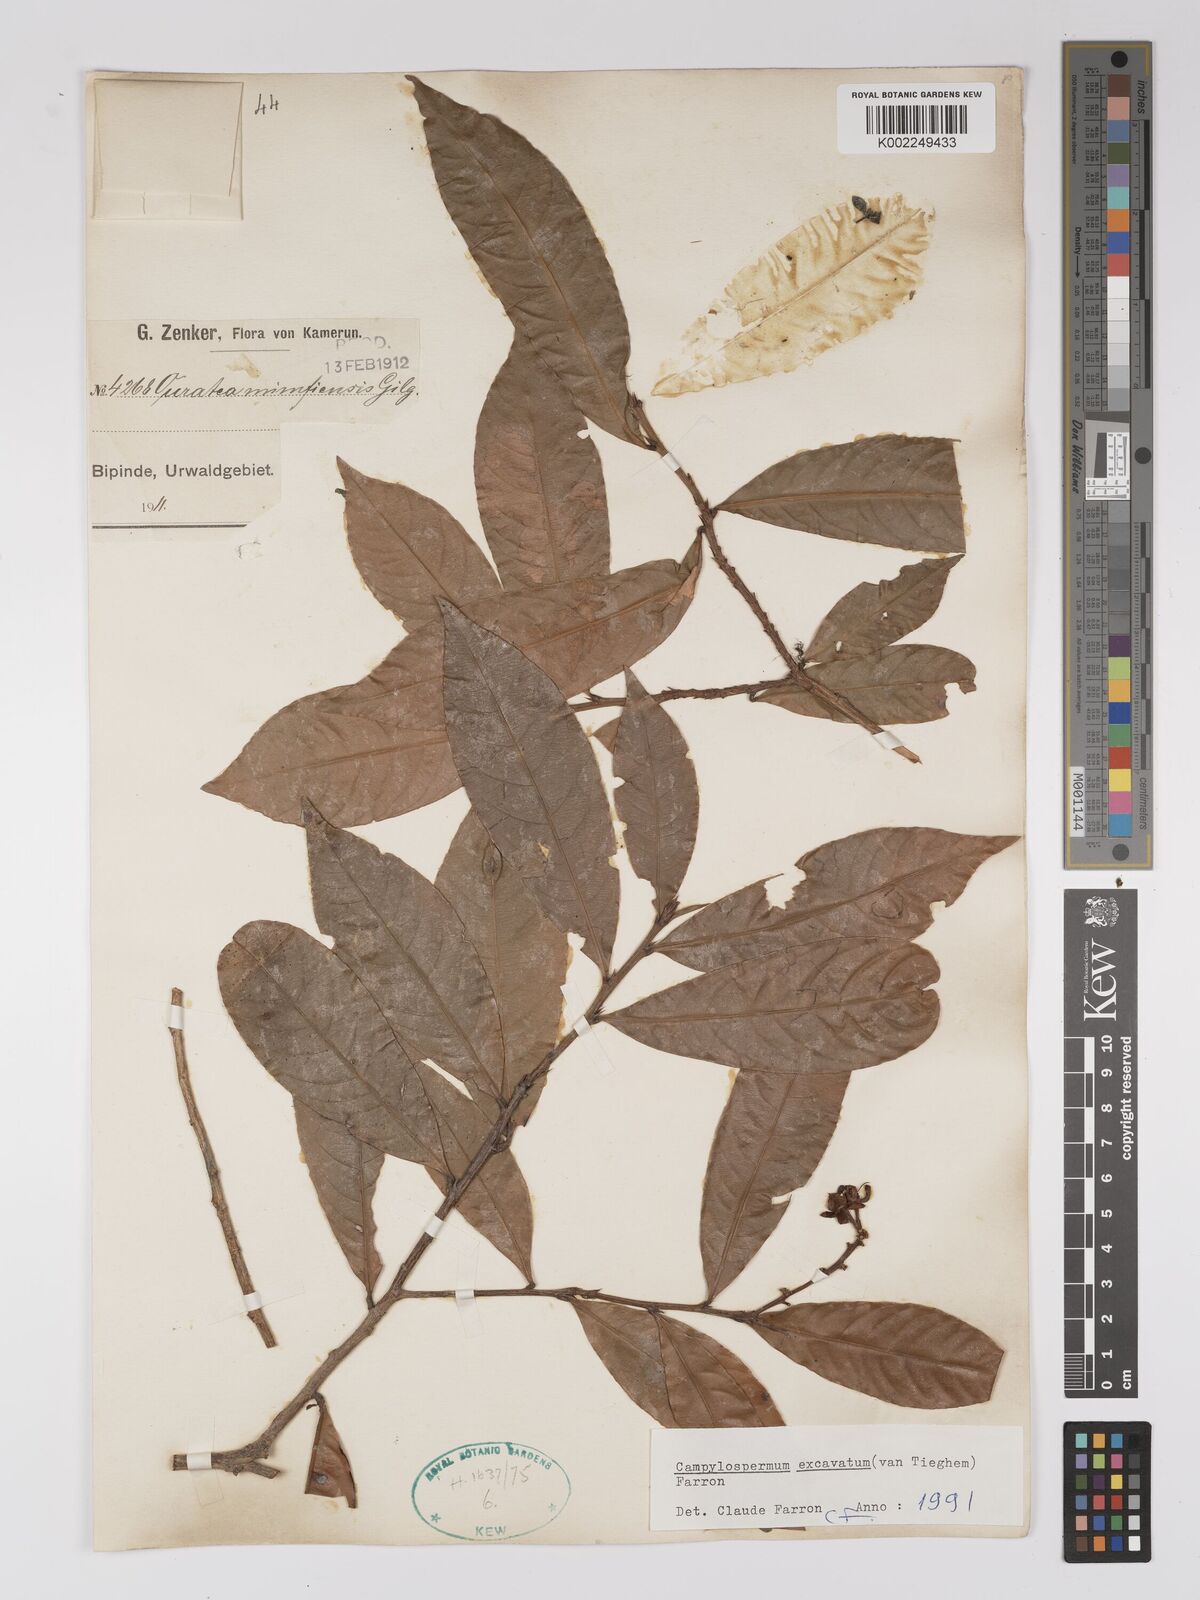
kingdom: Plantae
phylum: Tracheophyta
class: Magnoliopsida
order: Malpighiales
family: Ochnaceae
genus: Campylospermum
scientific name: Campylospermum excavatum
